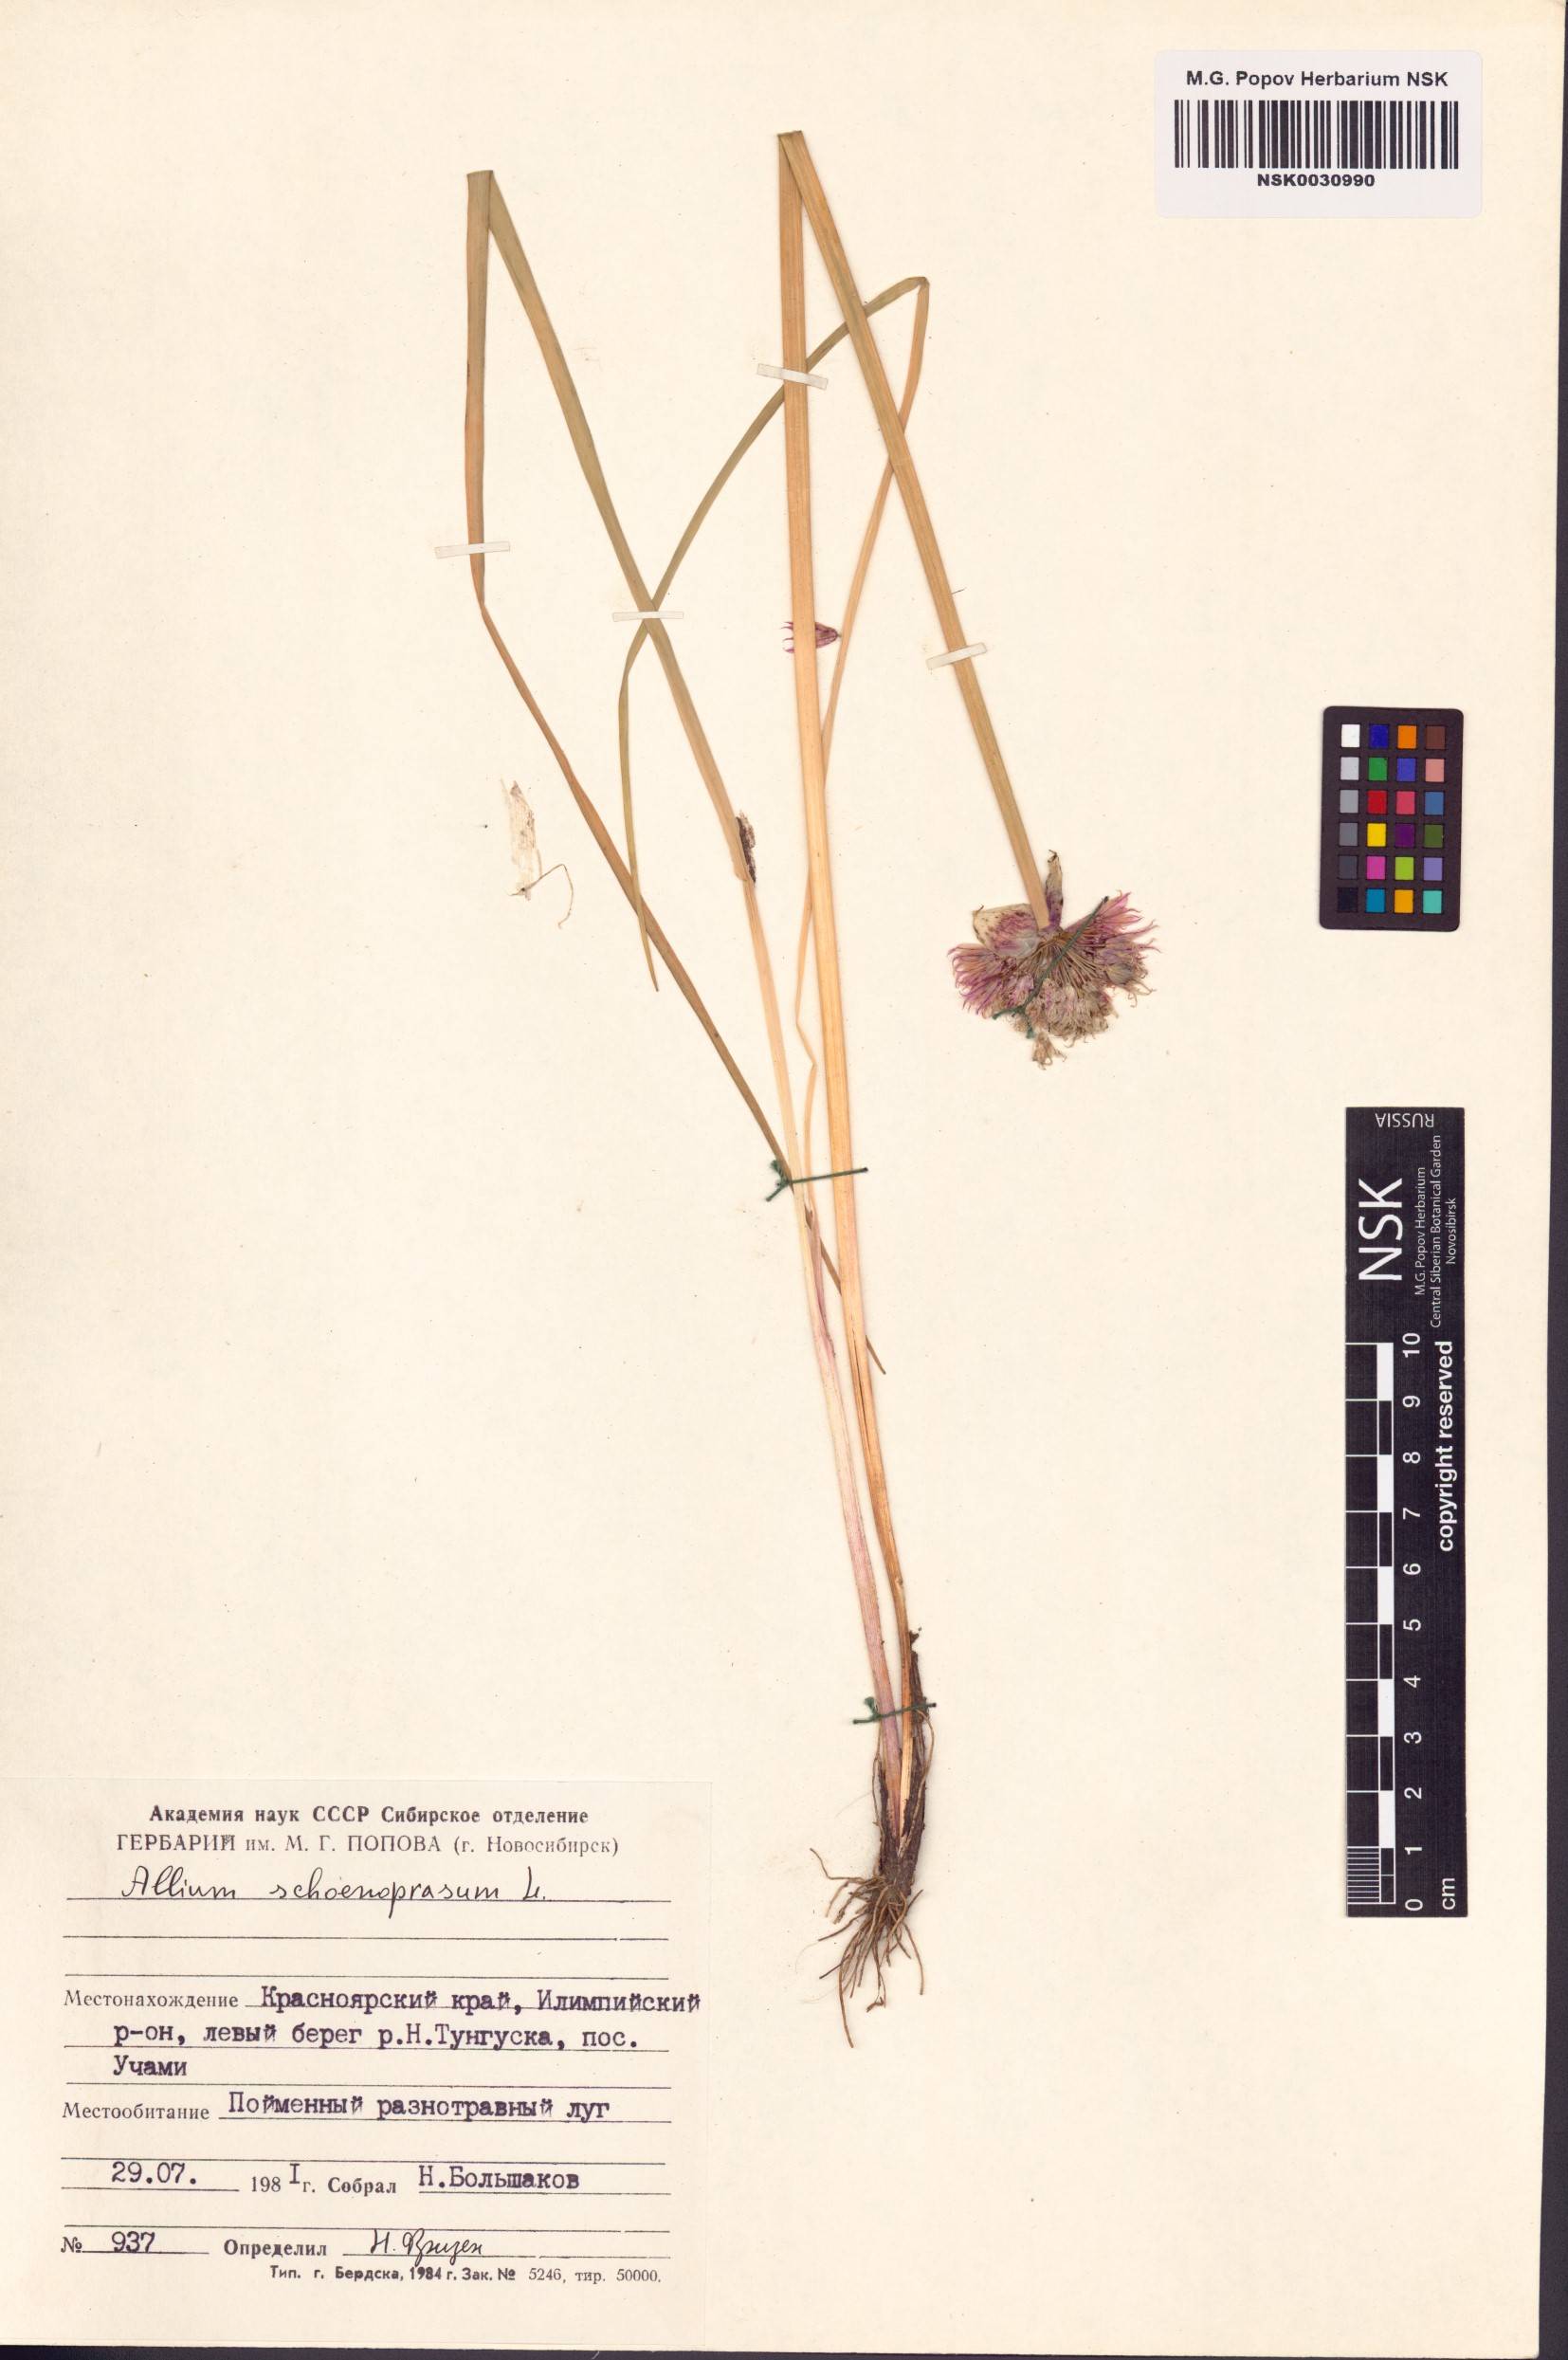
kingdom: Plantae
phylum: Tracheophyta
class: Liliopsida
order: Asparagales
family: Amaryllidaceae
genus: Allium
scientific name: Allium schoenoprasum
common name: Chives
